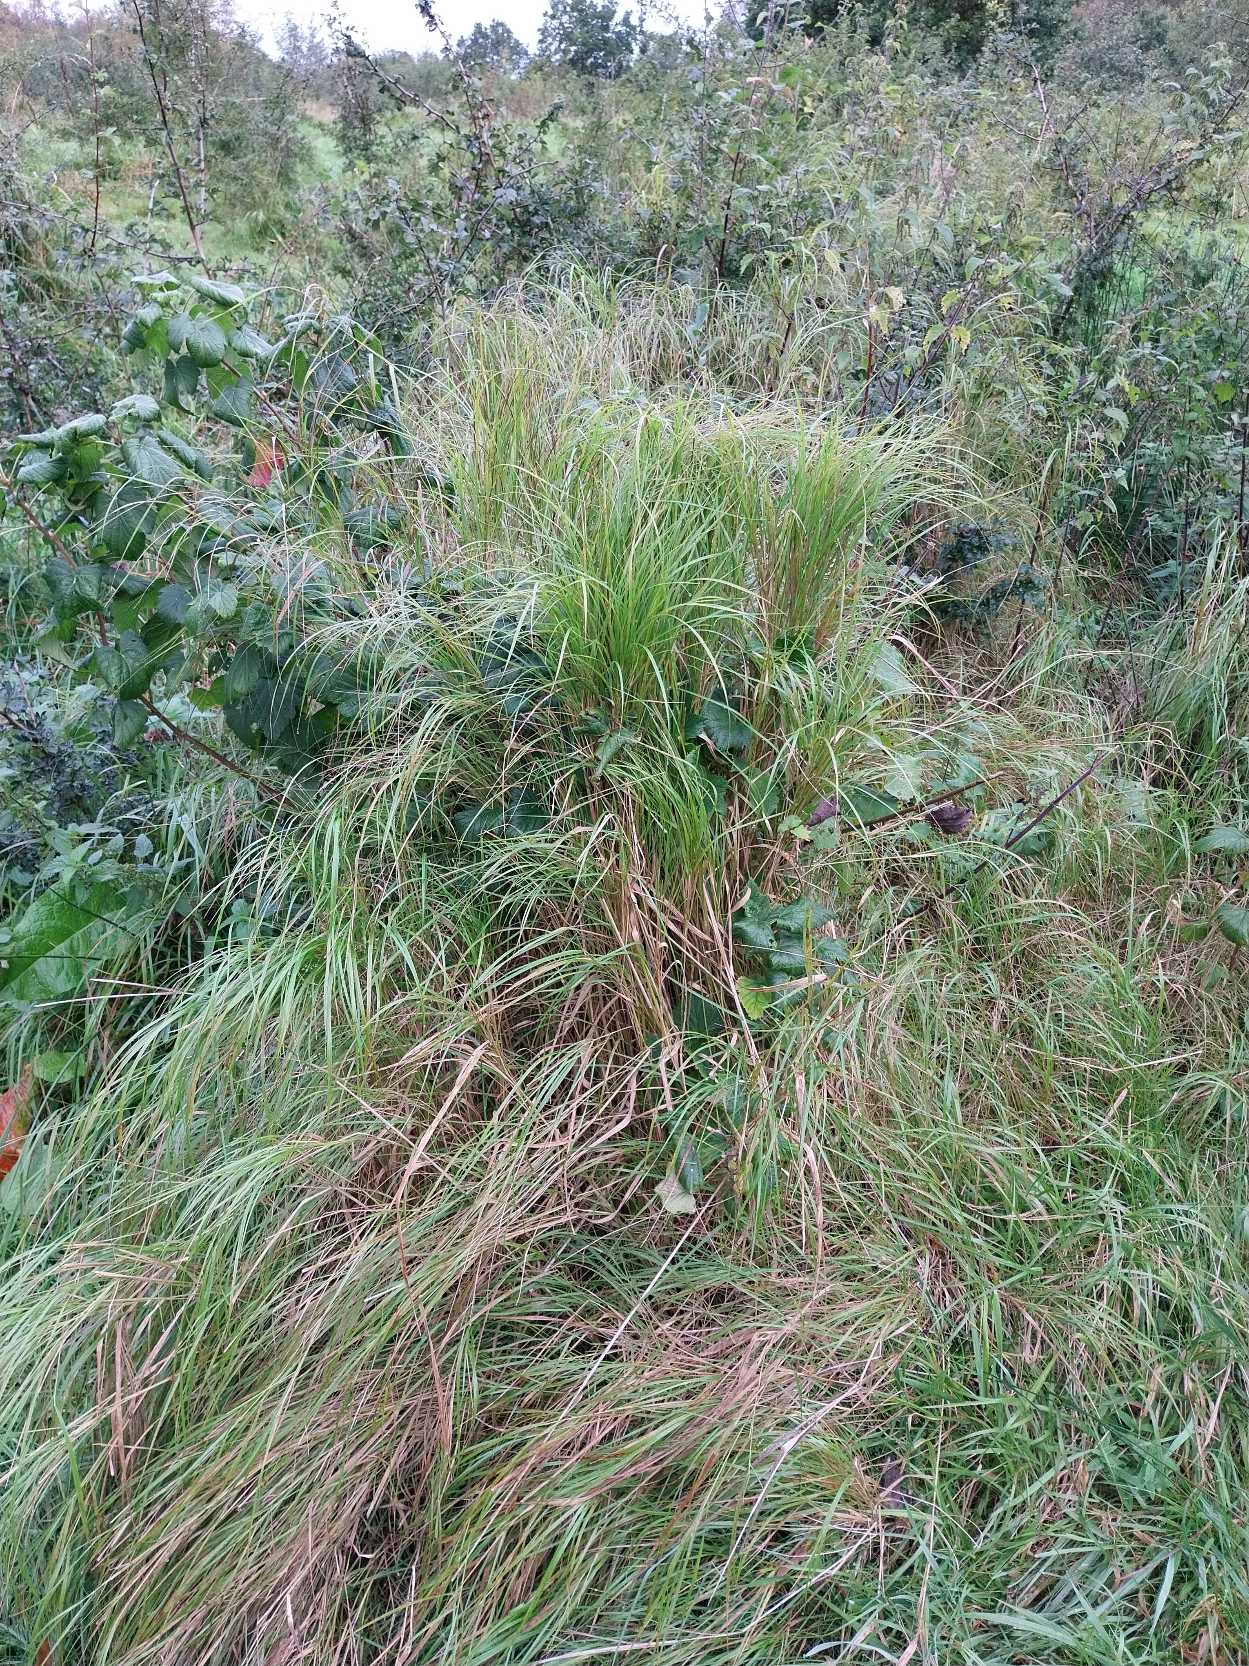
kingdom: Plantae
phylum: Tracheophyta
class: Liliopsida
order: Poales
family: Poaceae
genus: Calamagrostis
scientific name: Calamagrostis canescens
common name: Eng-rørhvene
